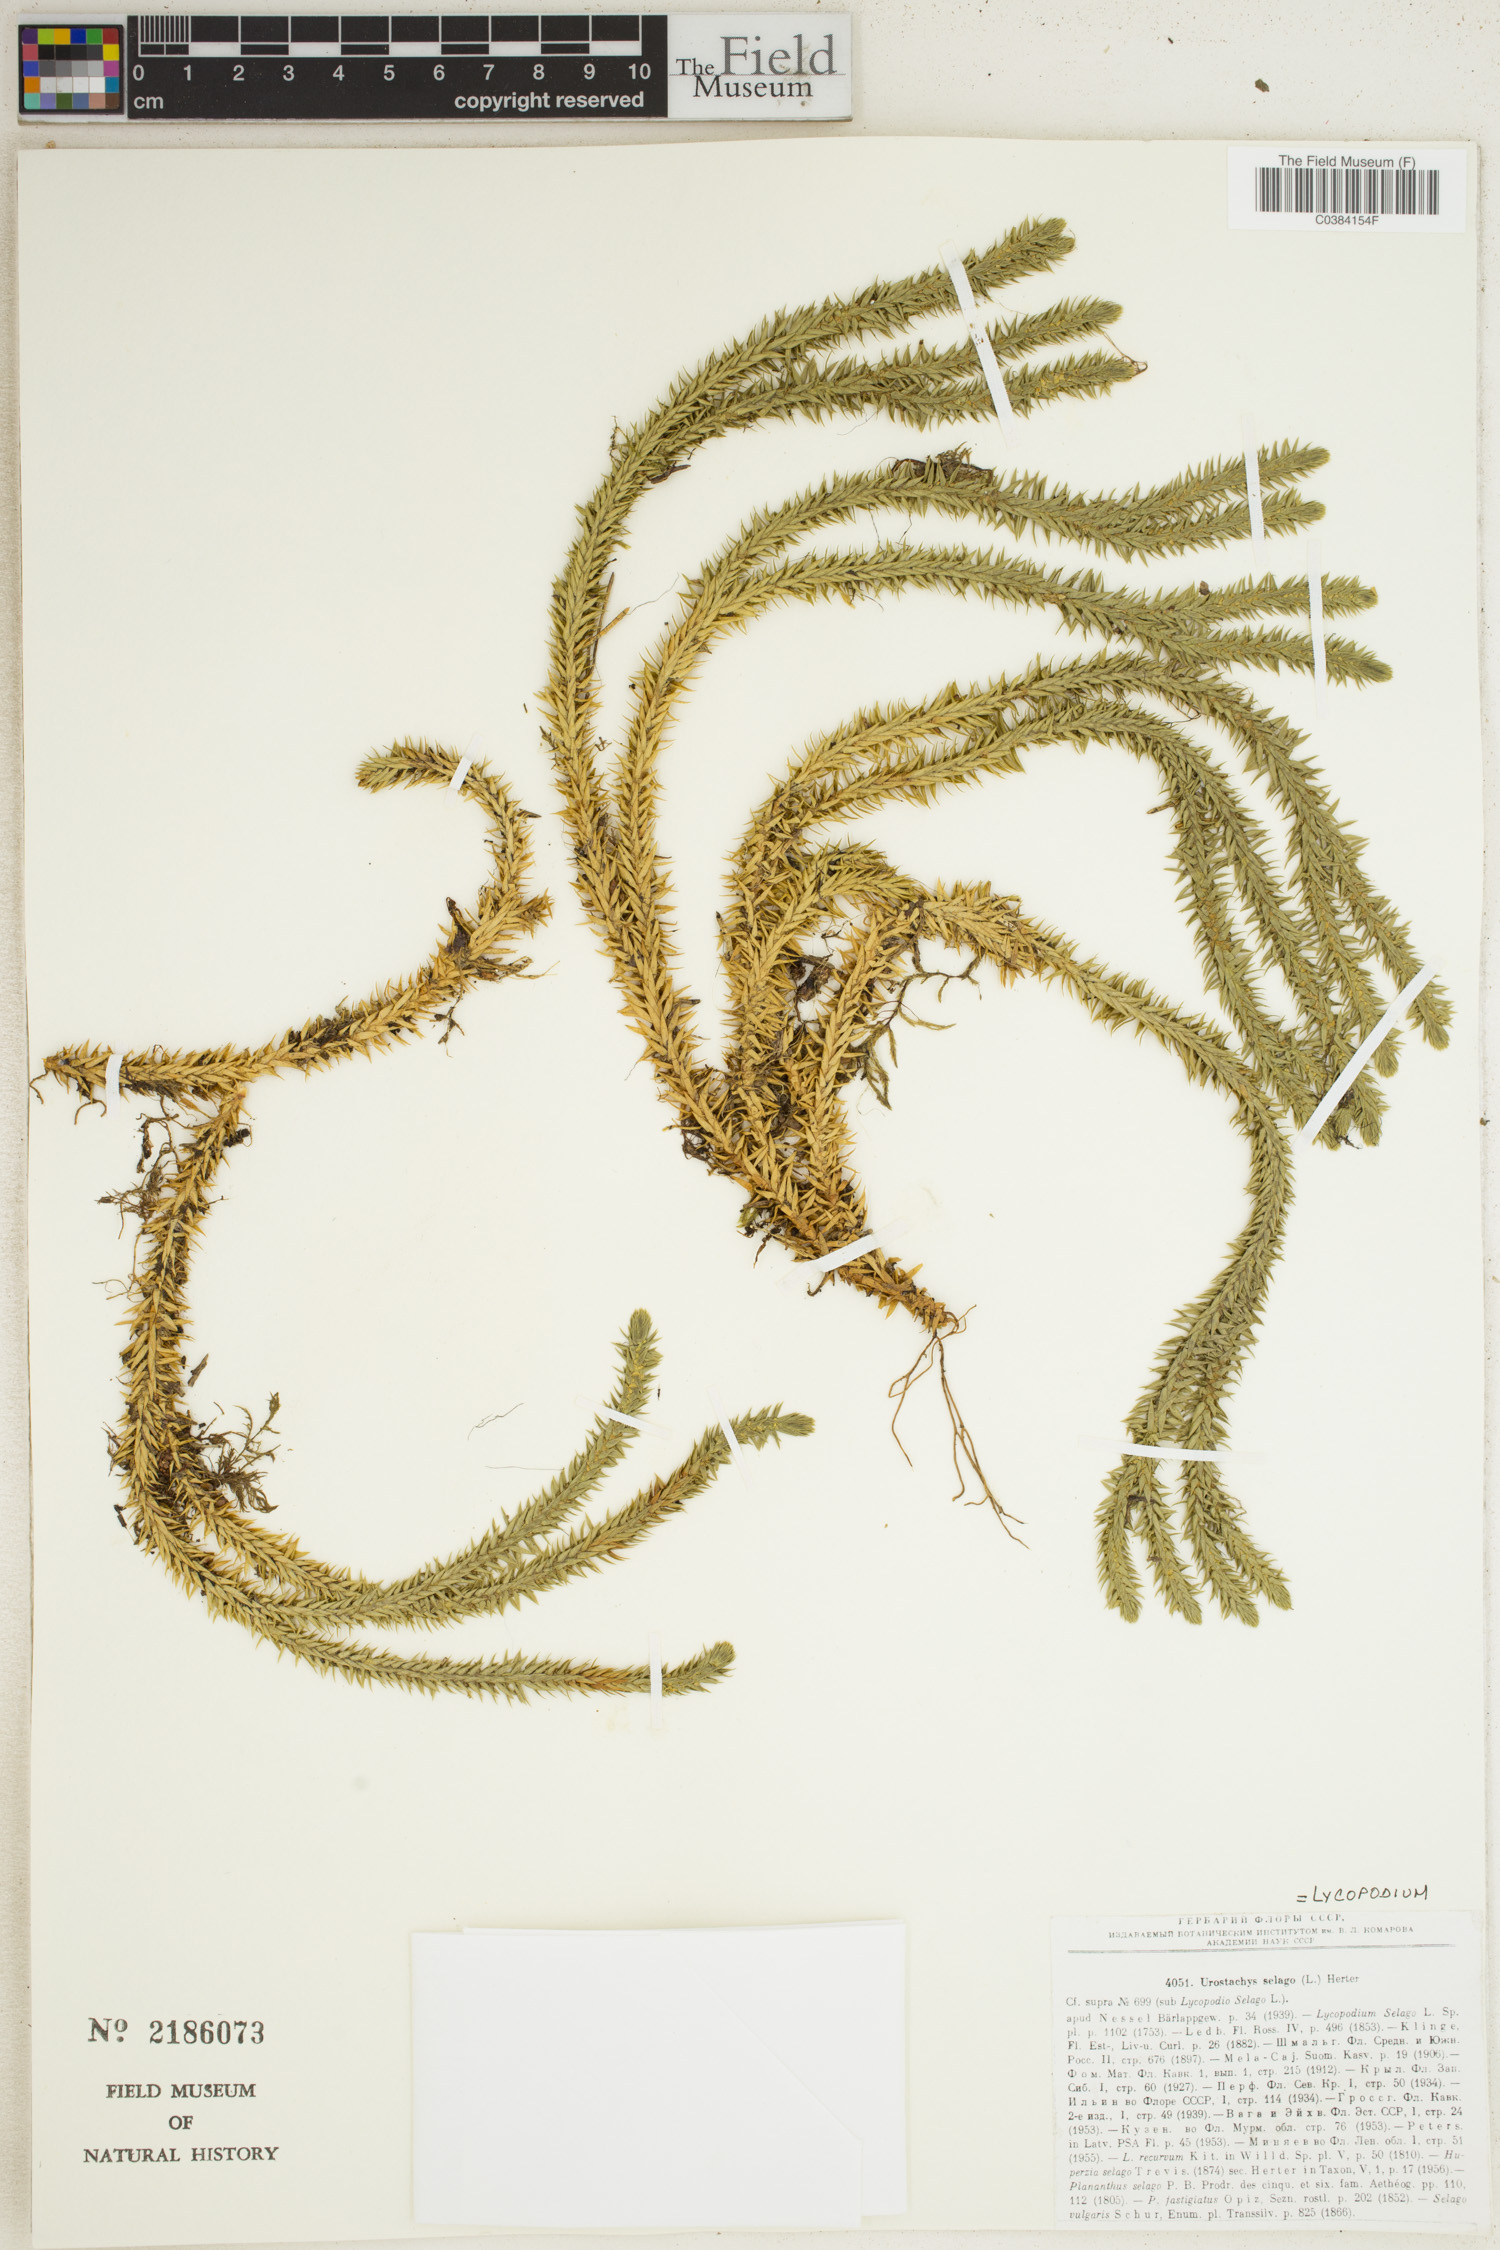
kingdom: Plantae
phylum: Tracheophyta
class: Lycopodiopsida
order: Lycopodiales
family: Lycopodiaceae
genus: Huperzia
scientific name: Huperzia selago
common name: Northern firmoss
